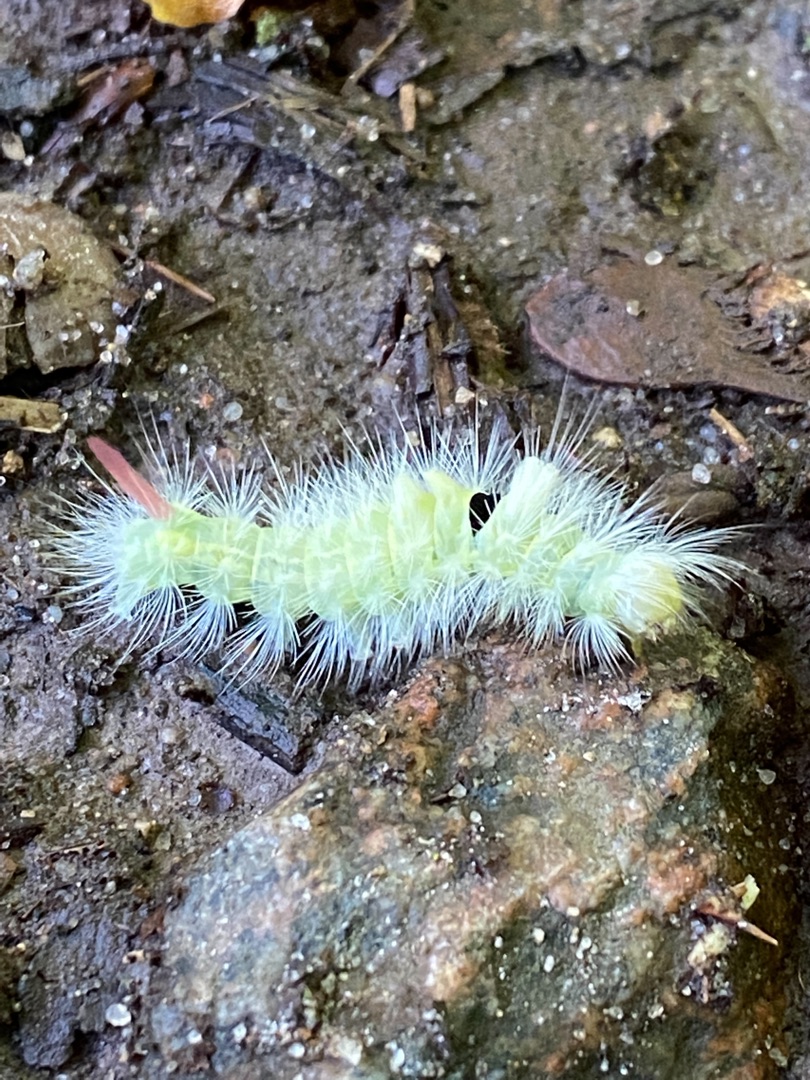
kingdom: Animalia
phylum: Arthropoda
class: Insecta
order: Lepidoptera
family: Erebidae
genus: Calliteara
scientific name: Calliteara pudibunda
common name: Bøgenonne
